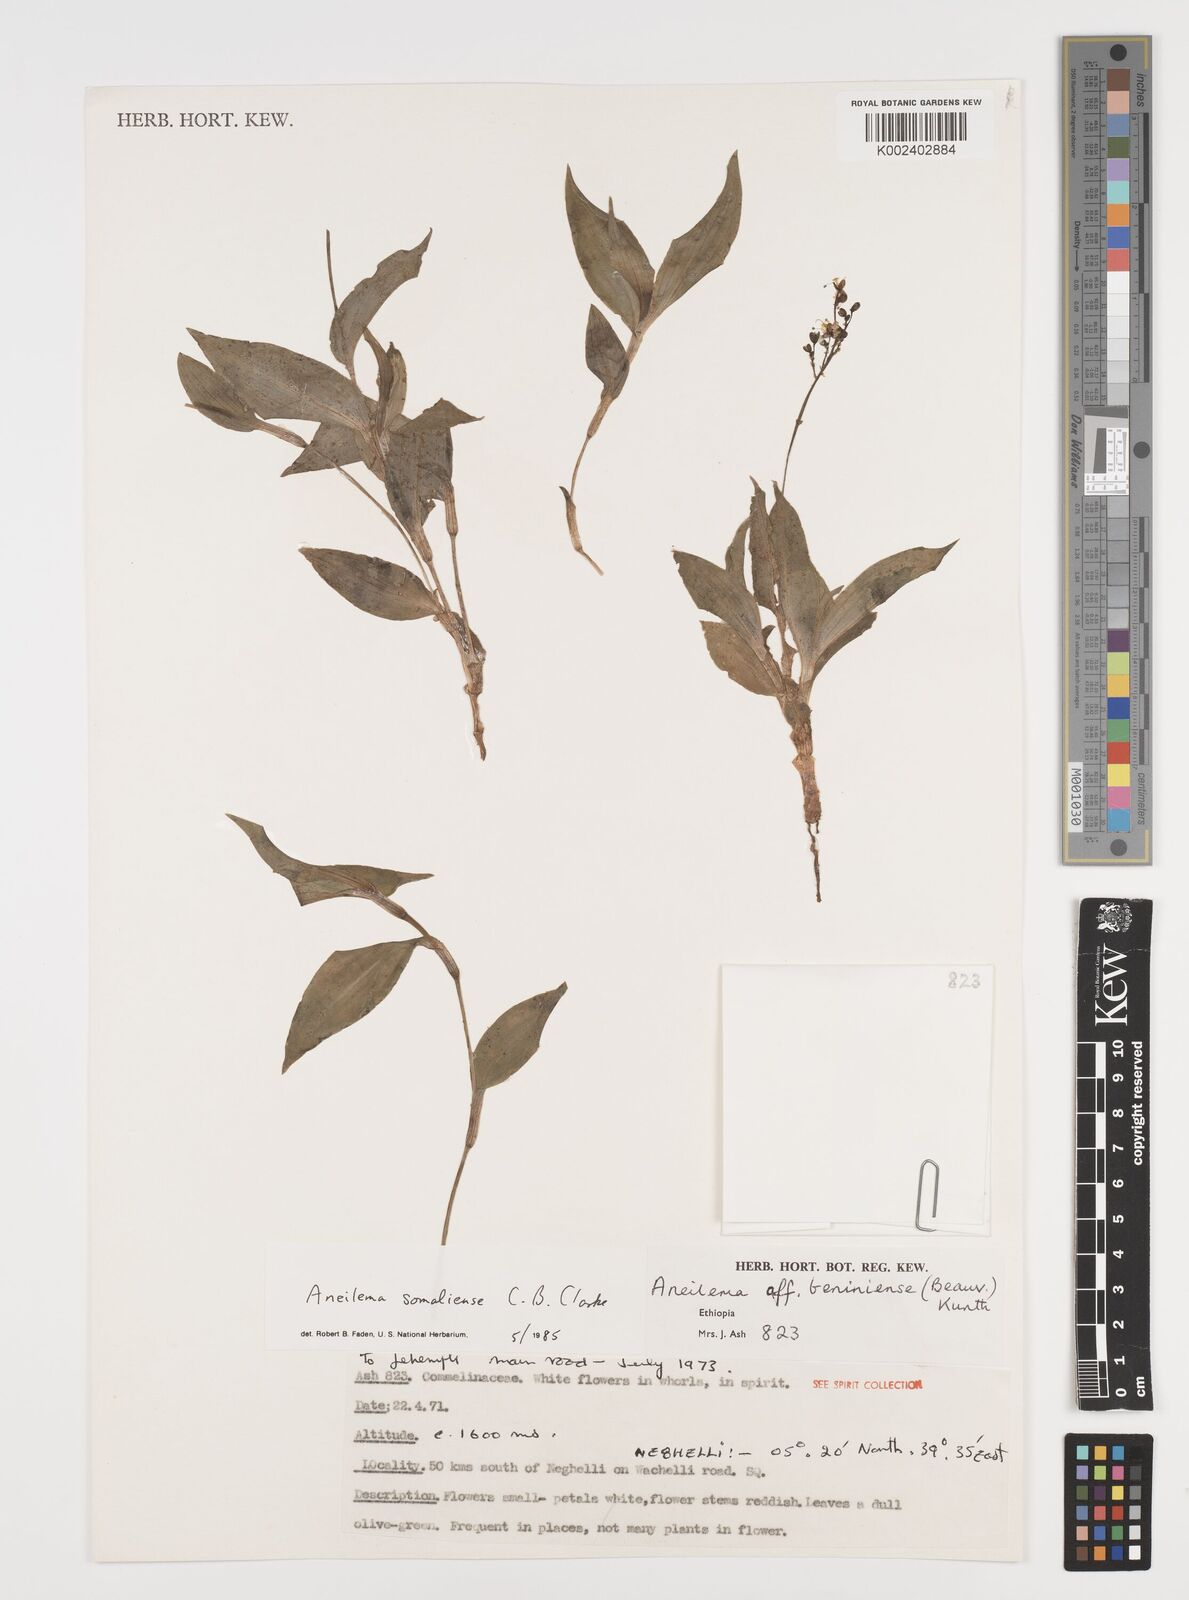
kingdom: Plantae
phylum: Tracheophyta
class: Liliopsida
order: Commelinales
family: Commelinaceae
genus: Aneilema
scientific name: Aneilema somaliense
